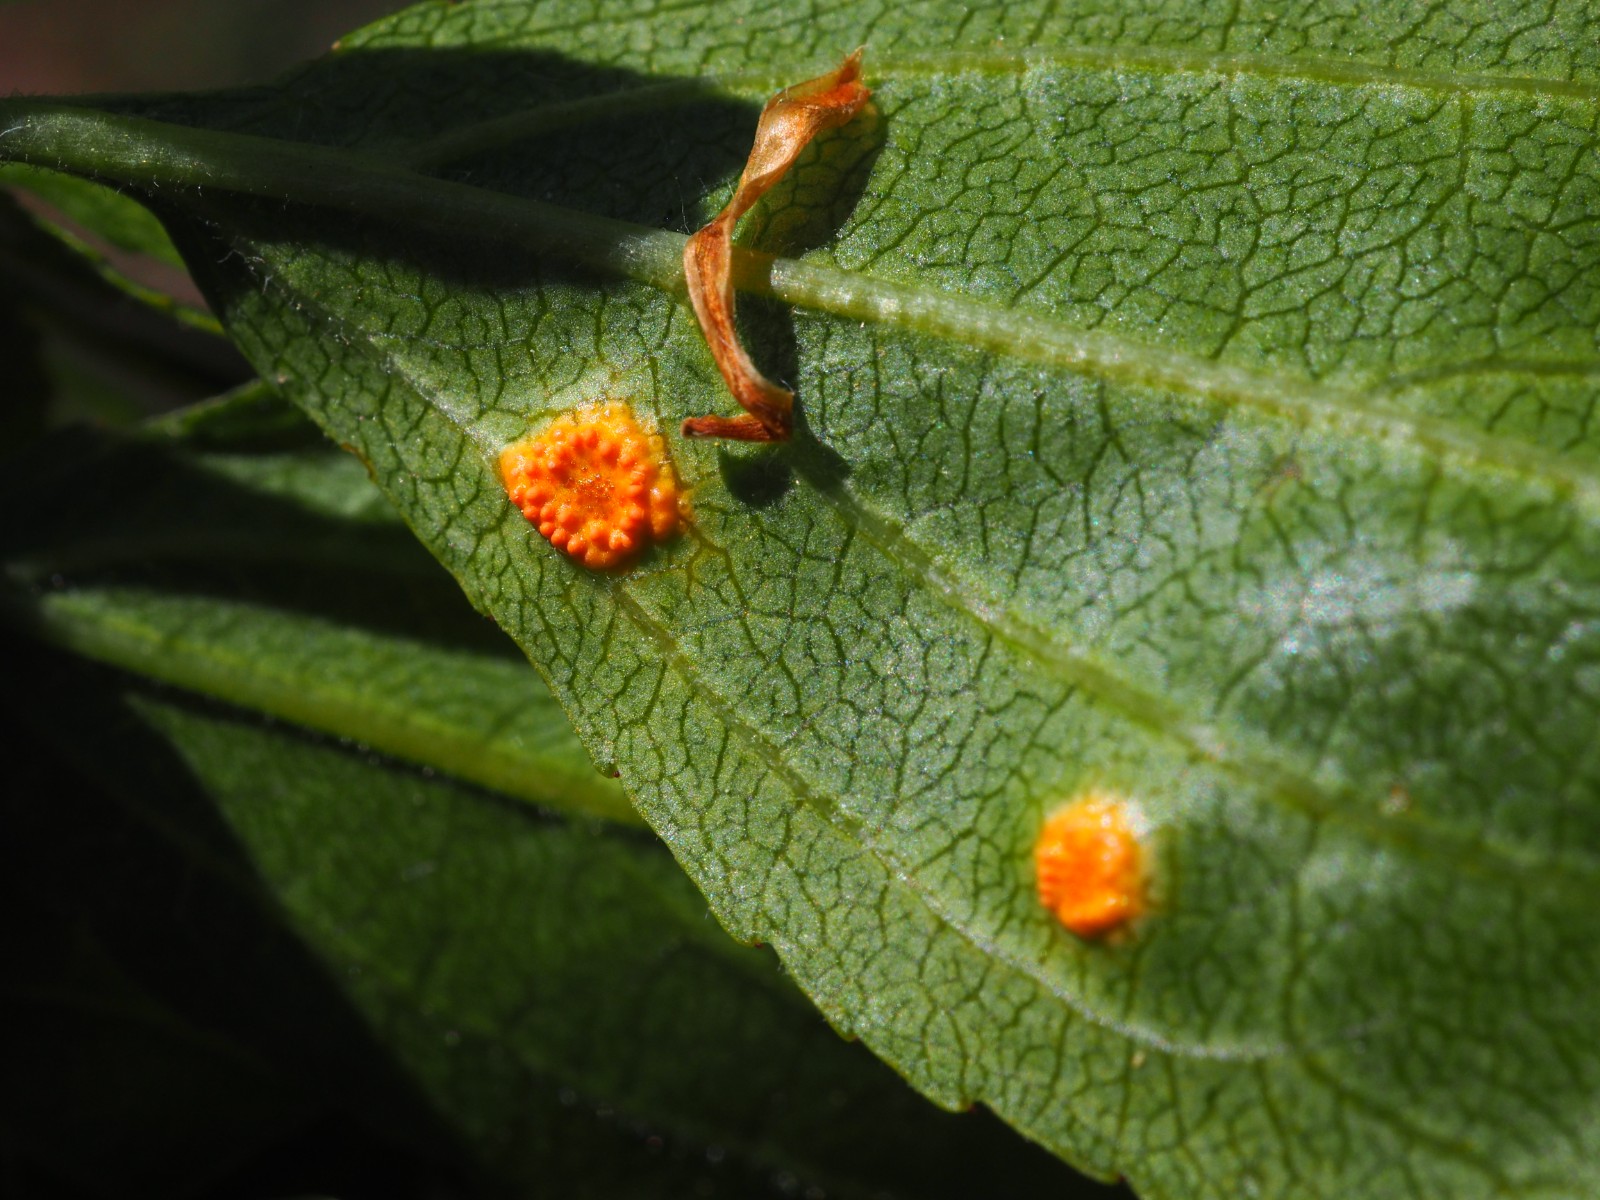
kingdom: Fungi
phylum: Basidiomycota
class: Pucciniomycetes
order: Pucciniales
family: Pucciniaceae
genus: Puccinia
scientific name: Puccinia coronata
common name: Crown rust
